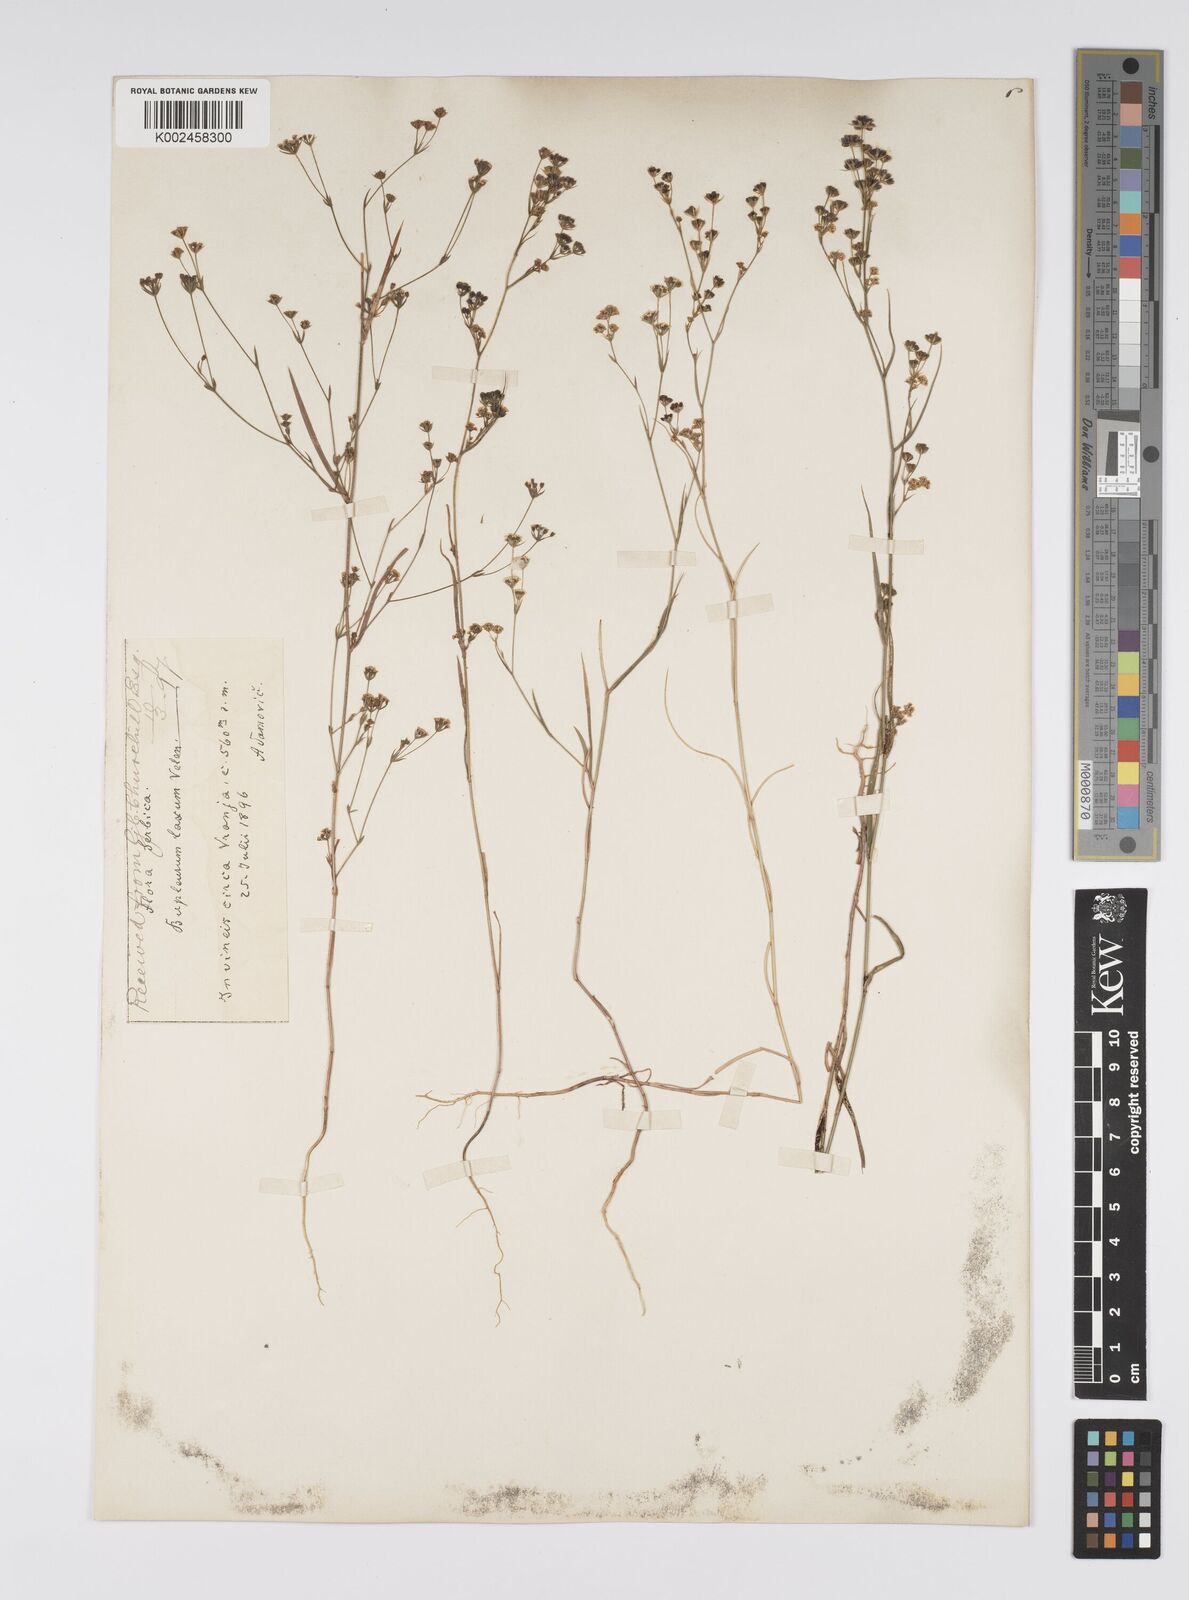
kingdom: Plantae
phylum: Tracheophyta
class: Magnoliopsida
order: Apiales
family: Apiaceae
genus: Bupleurum
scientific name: Bupleurum commutatum
